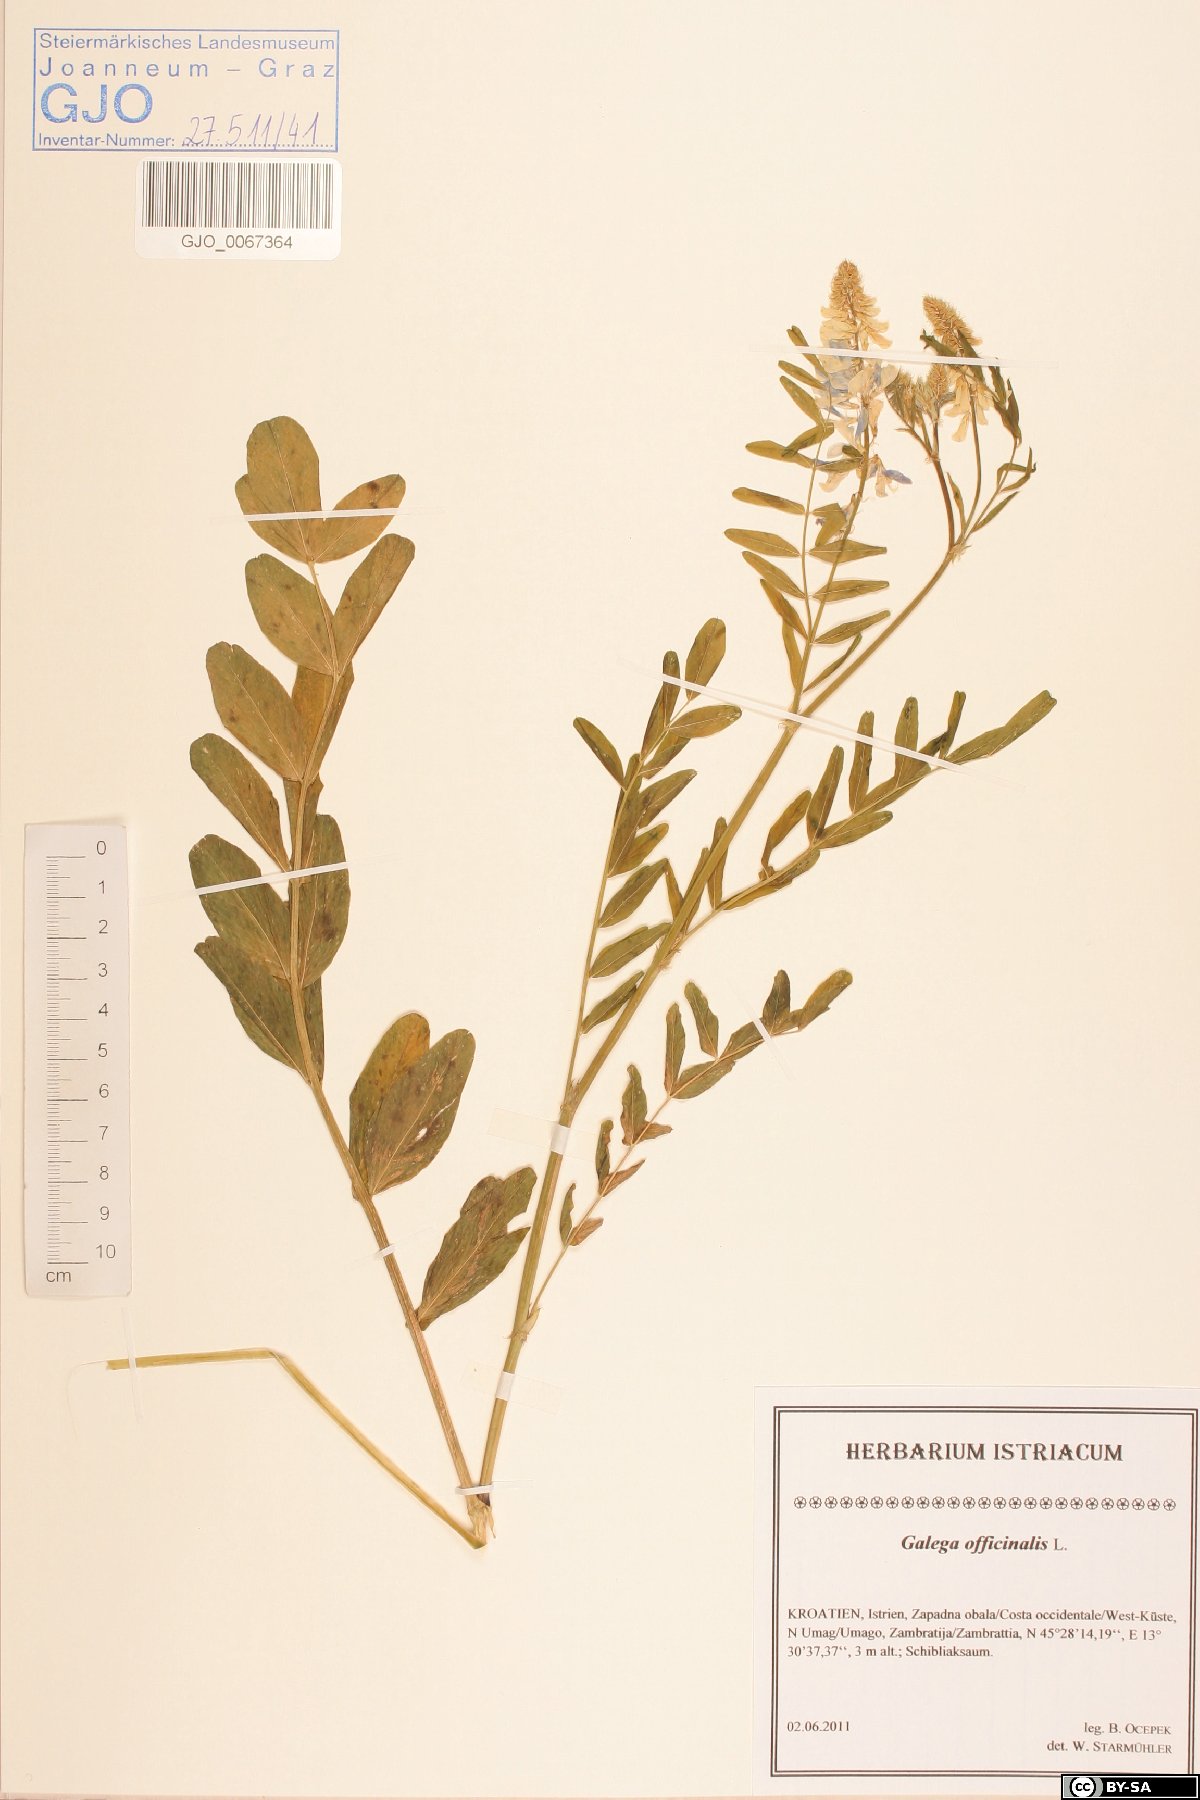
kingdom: Plantae
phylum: Tracheophyta
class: Magnoliopsida
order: Fabales
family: Fabaceae
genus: Galega
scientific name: Galega officinalis
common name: Goat's-rue
